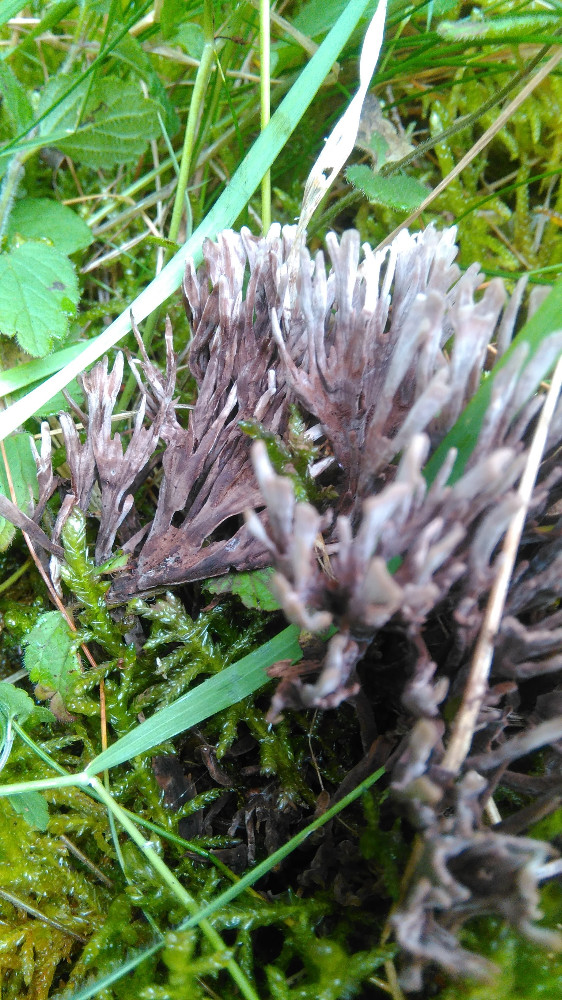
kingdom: Fungi
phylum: Basidiomycota
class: Agaricomycetes
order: Thelephorales
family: Thelephoraceae
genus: Thelephora
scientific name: Thelephora palmata
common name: grenet frynsesvamp
